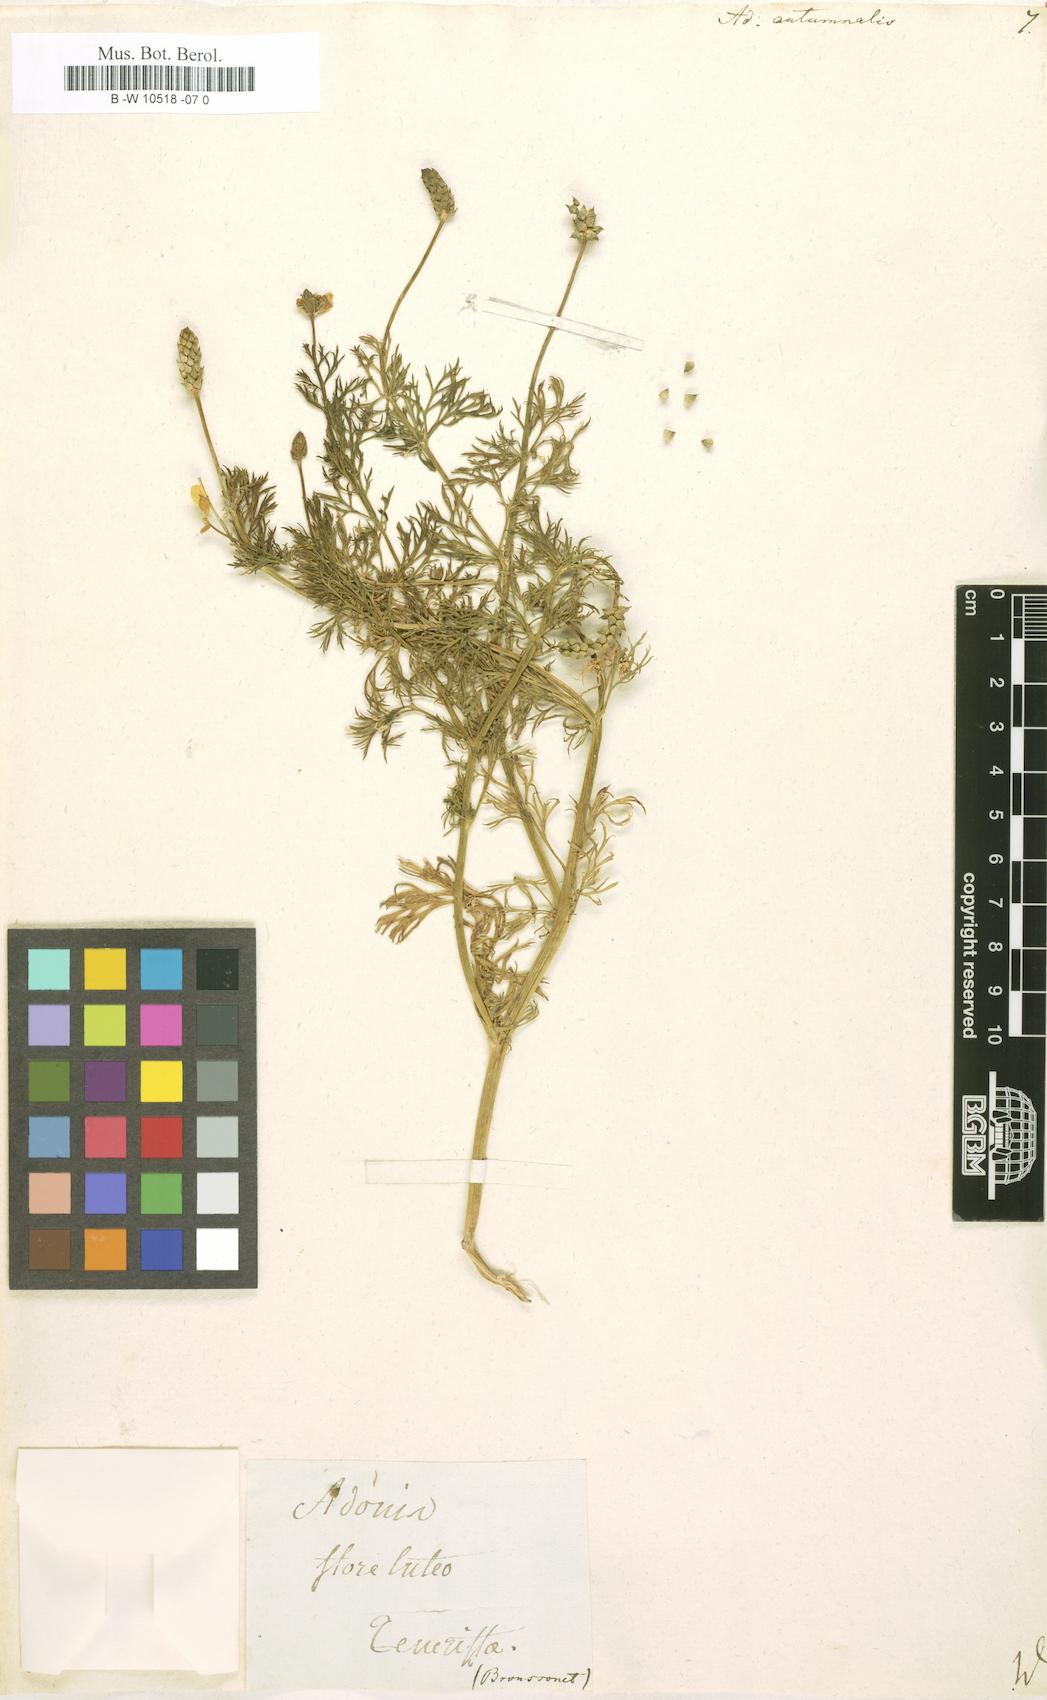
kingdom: Plantae
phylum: Tracheophyta
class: Magnoliopsida
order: Ranunculales
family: Ranunculaceae
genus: Adonis
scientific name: Adonis annua
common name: Pheasant's-eye
